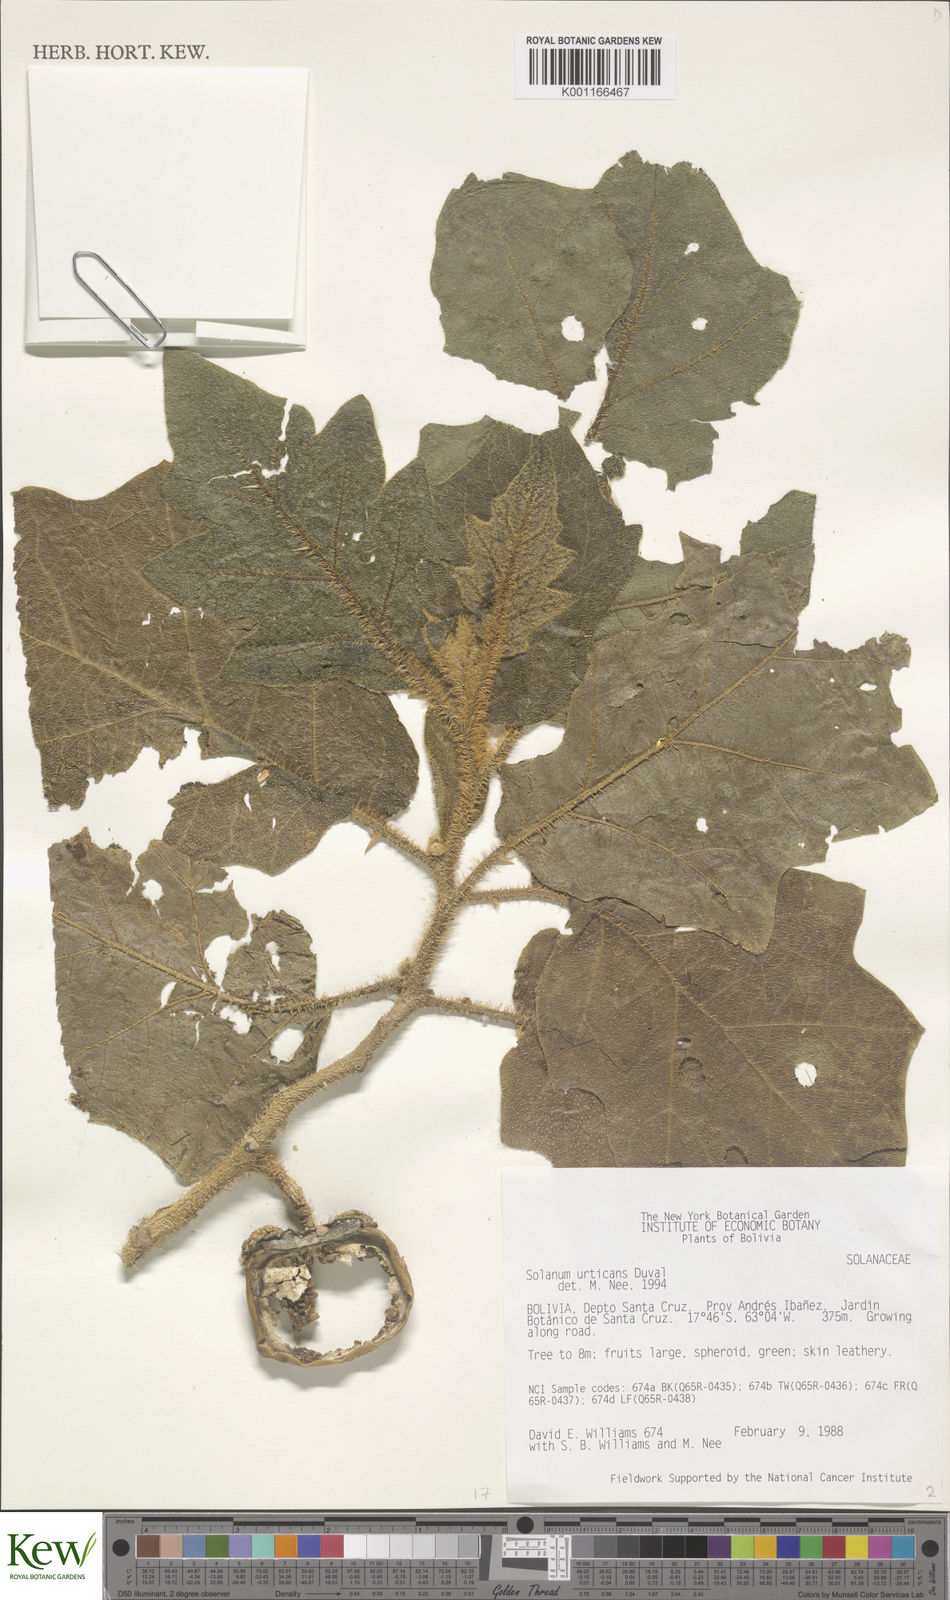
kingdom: Plantae
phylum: Tracheophyta
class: Magnoliopsida
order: Solanales
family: Solanaceae
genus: Solanum
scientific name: Solanum urticans
